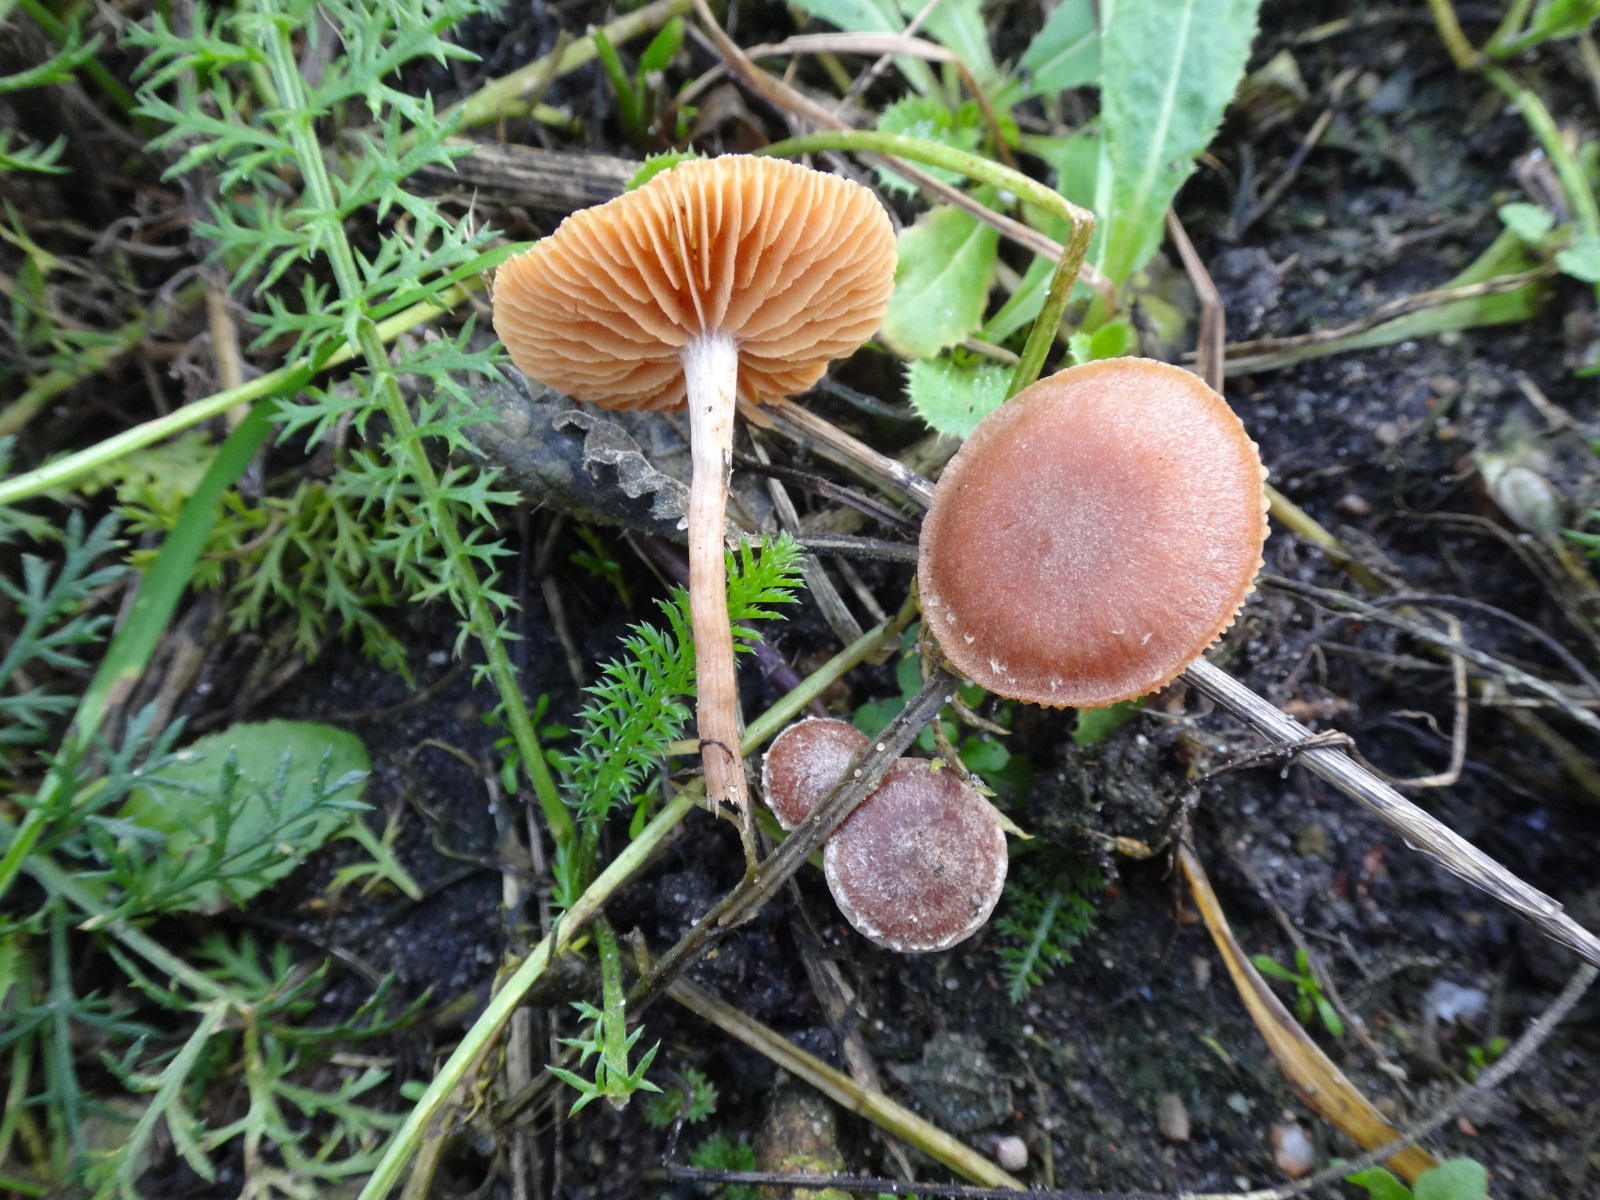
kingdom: Fungi
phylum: Basidiomycota
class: Agaricomycetes
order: Agaricales
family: Tubariaceae
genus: Tubaria
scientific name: Tubaria furfuracea
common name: kliddet fnughat
